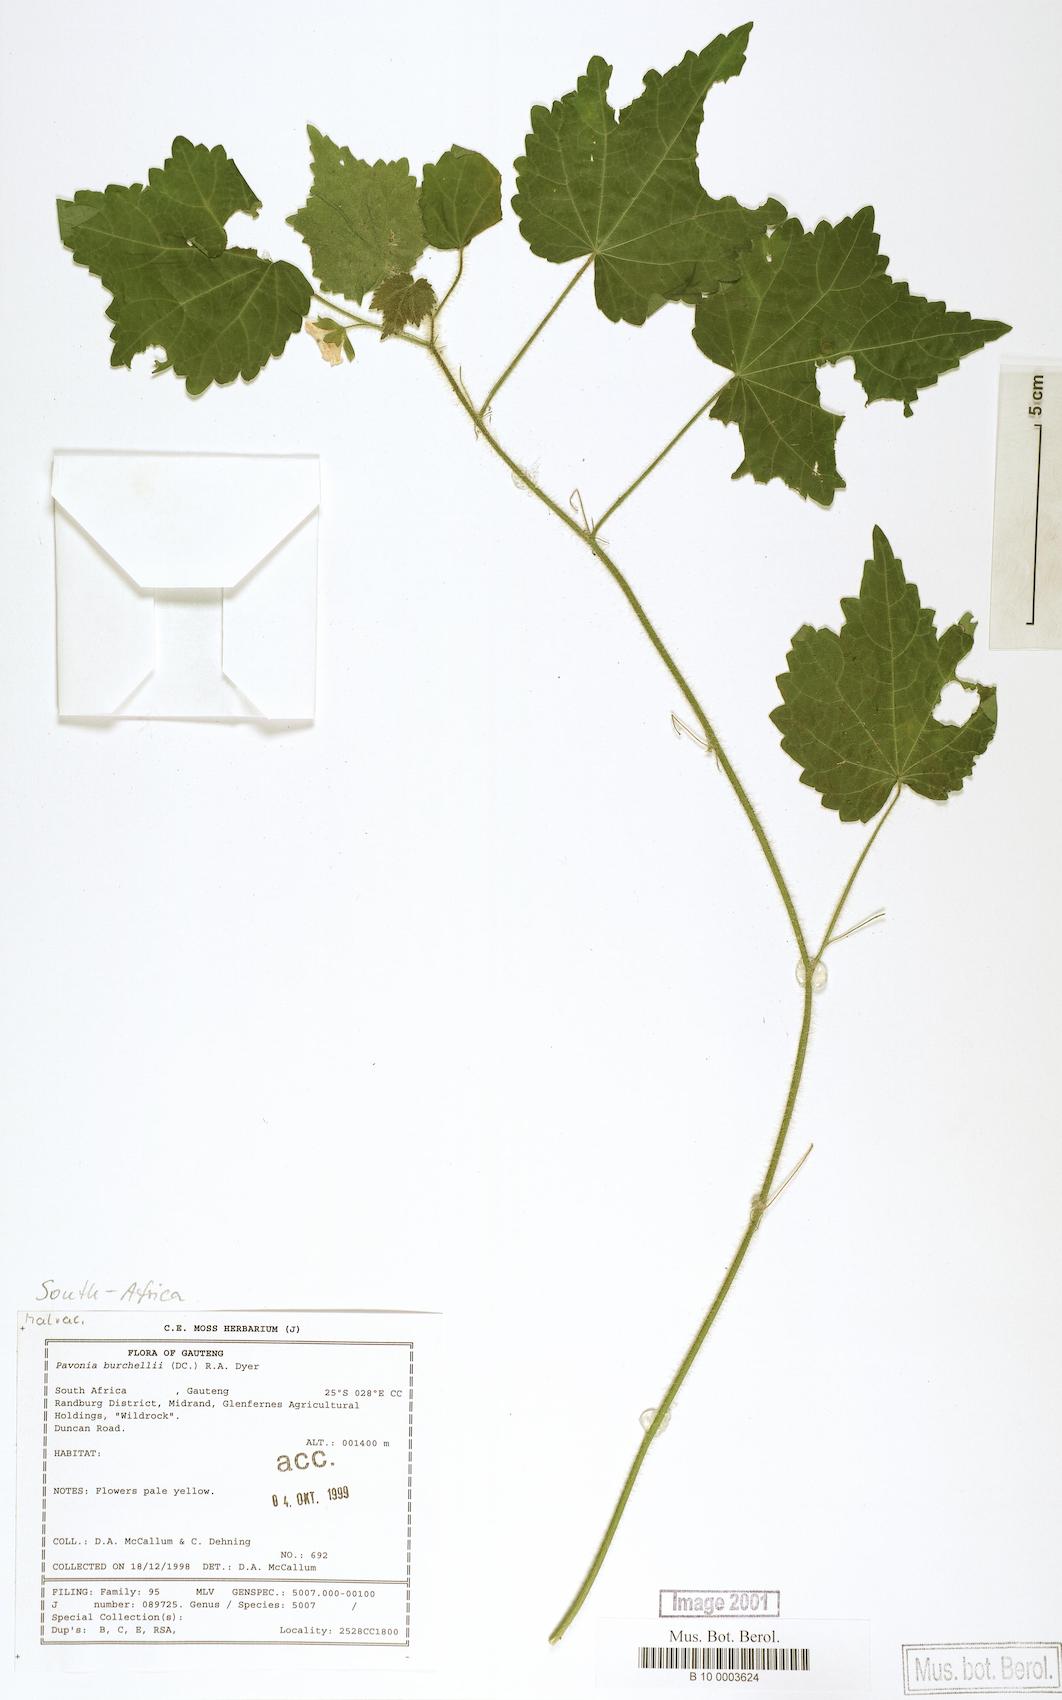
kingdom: Plantae
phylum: Tracheophyta
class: Magnoliopsida
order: Malvales
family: Malvaceae
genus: Pavonia
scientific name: Pavonia burchellii
